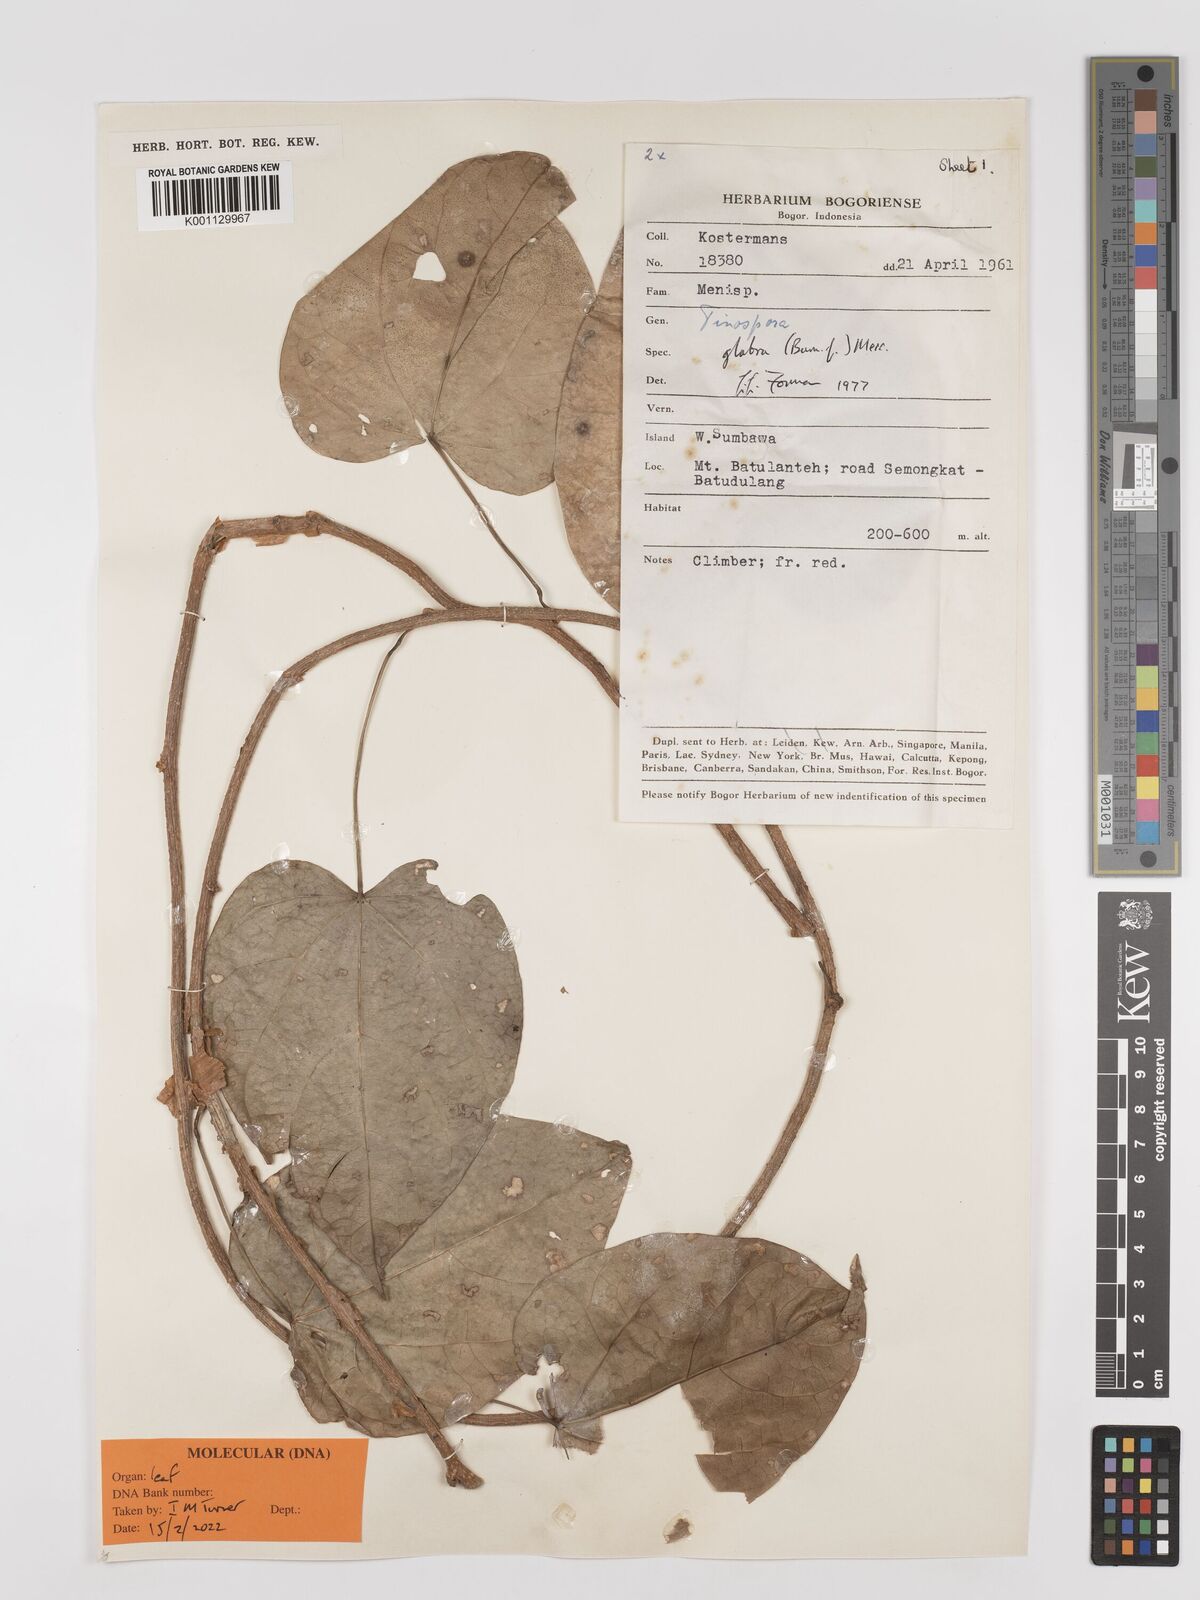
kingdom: Plantae
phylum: Tracheophyta
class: Magnoliopsida
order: Ranunculales
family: Menispermaceae
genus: Tinospora
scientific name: Tinospora glabra
